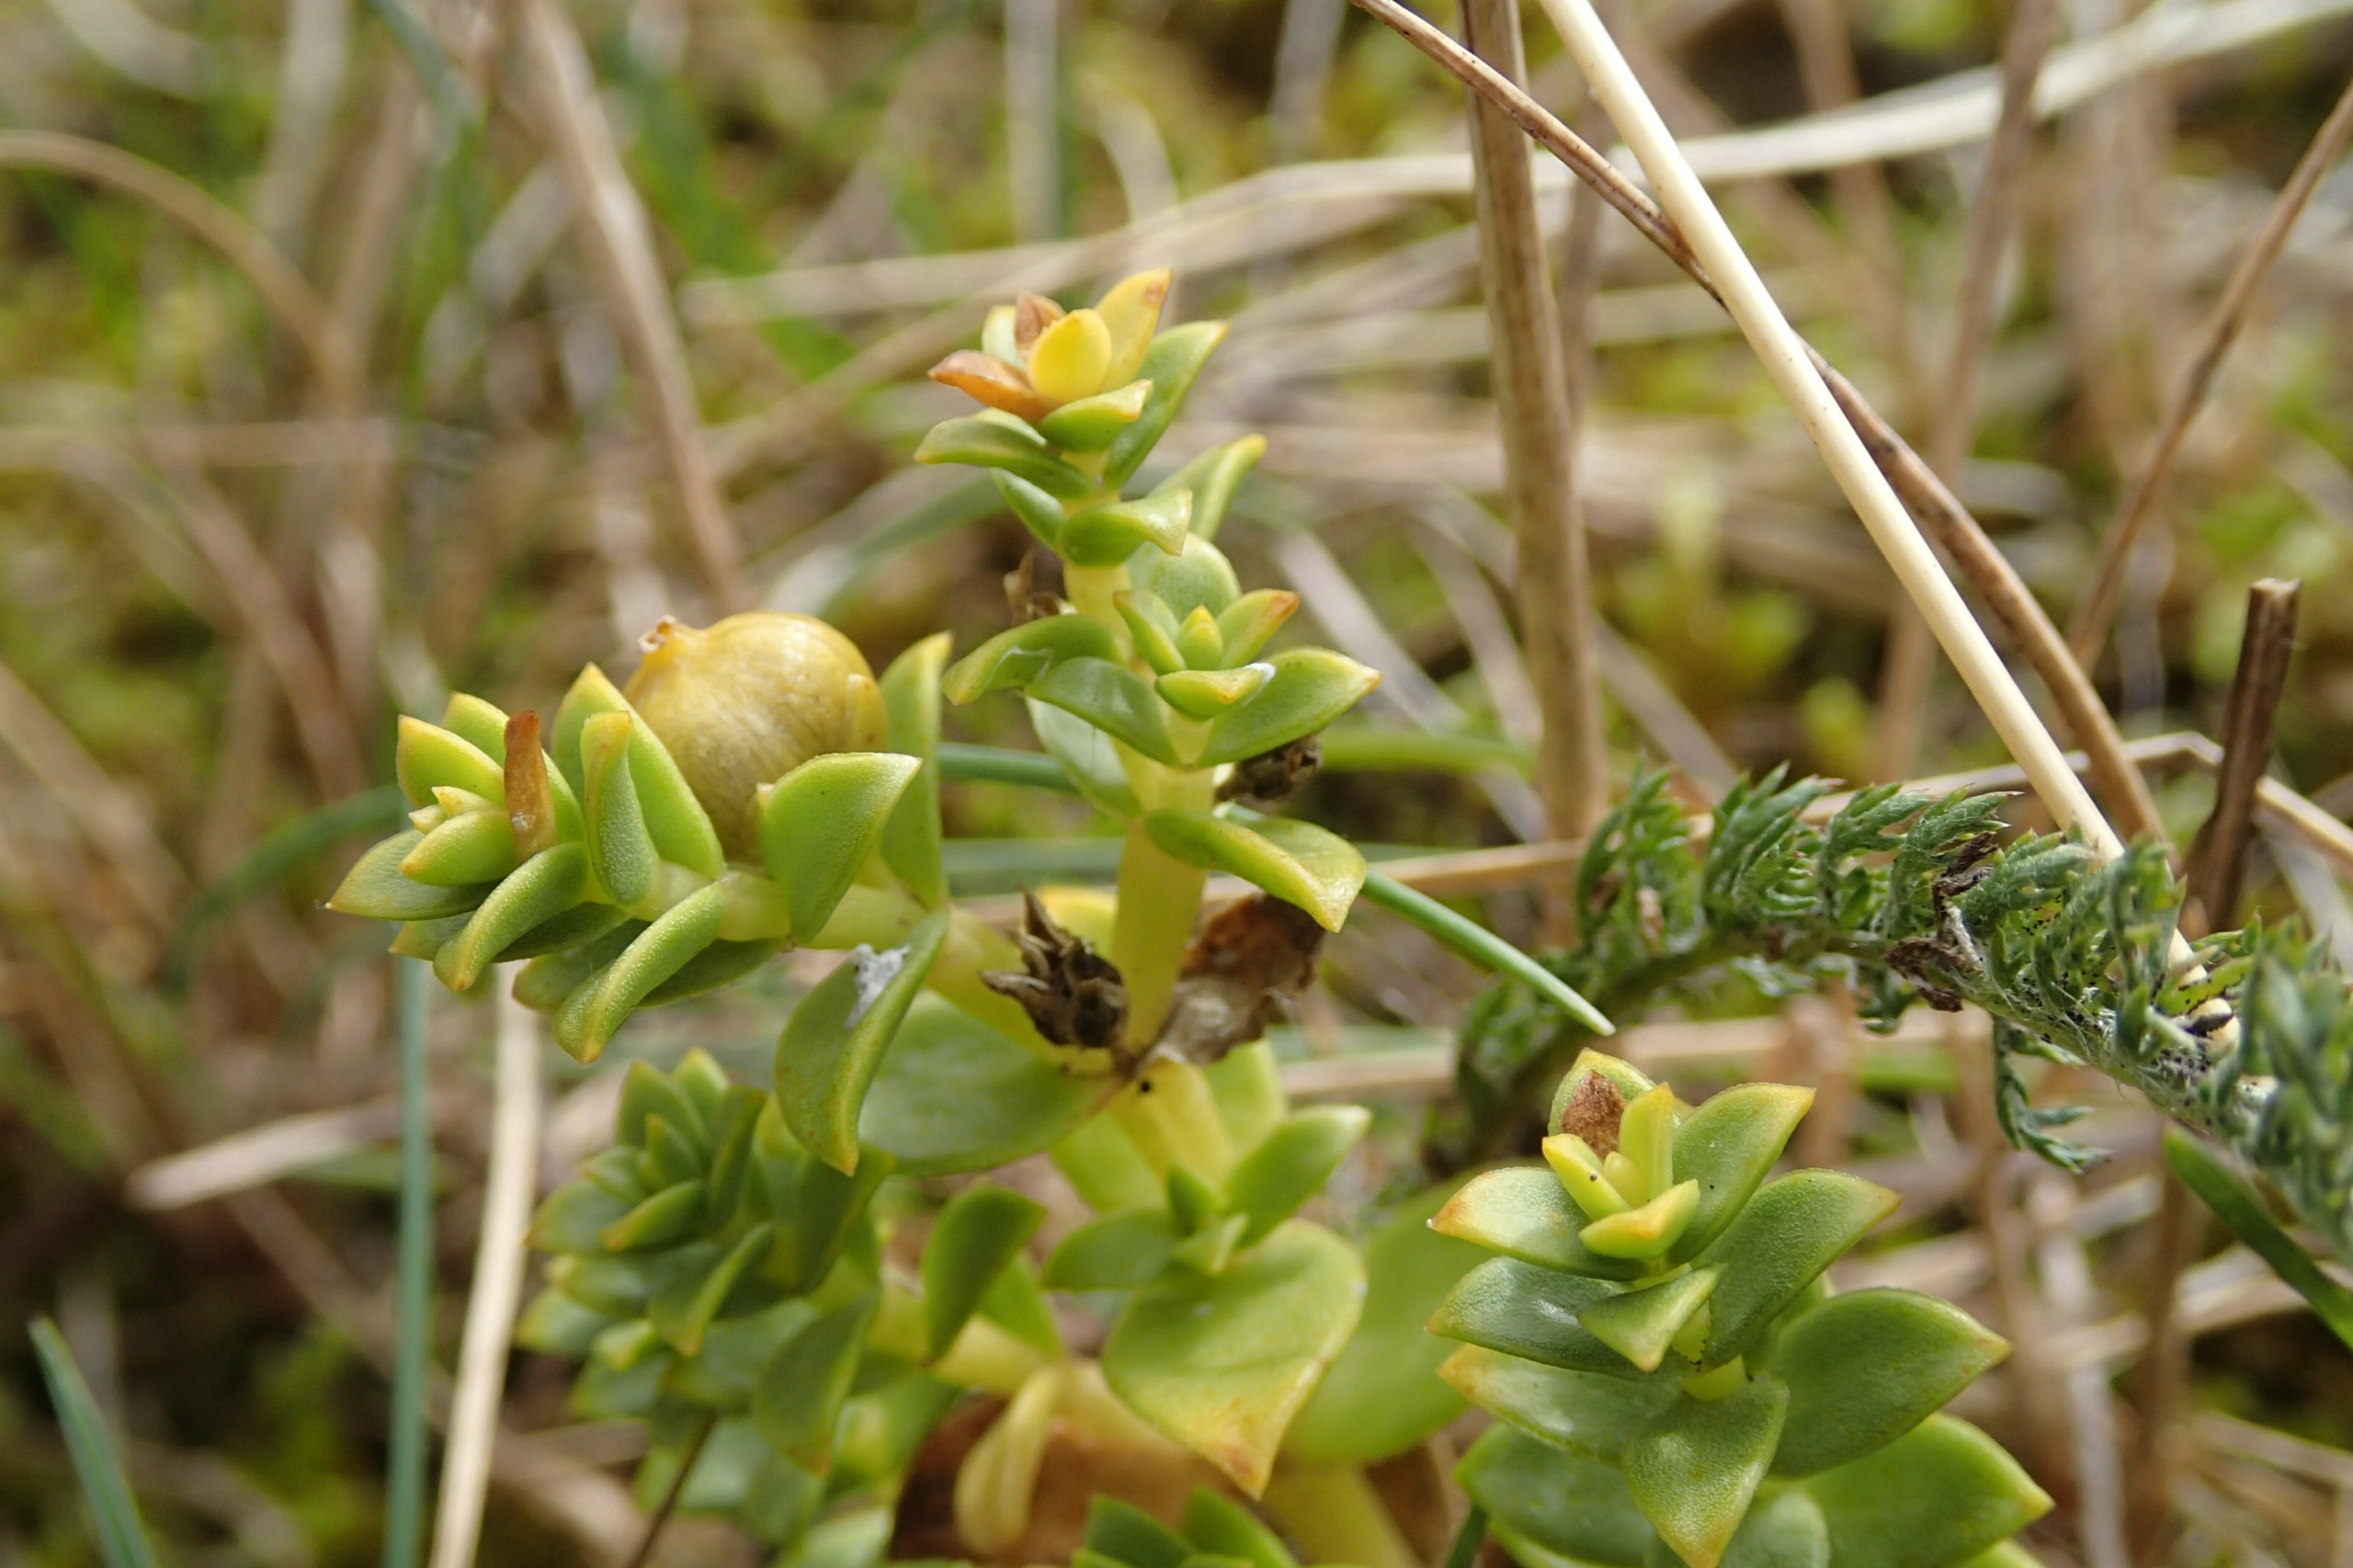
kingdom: Plantae
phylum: Tracheophyta
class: Magnoliopsida
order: Caryophyllales
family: Caryophyllaceae
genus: Honckenya
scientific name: Honckenya peploides
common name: Strandarve
